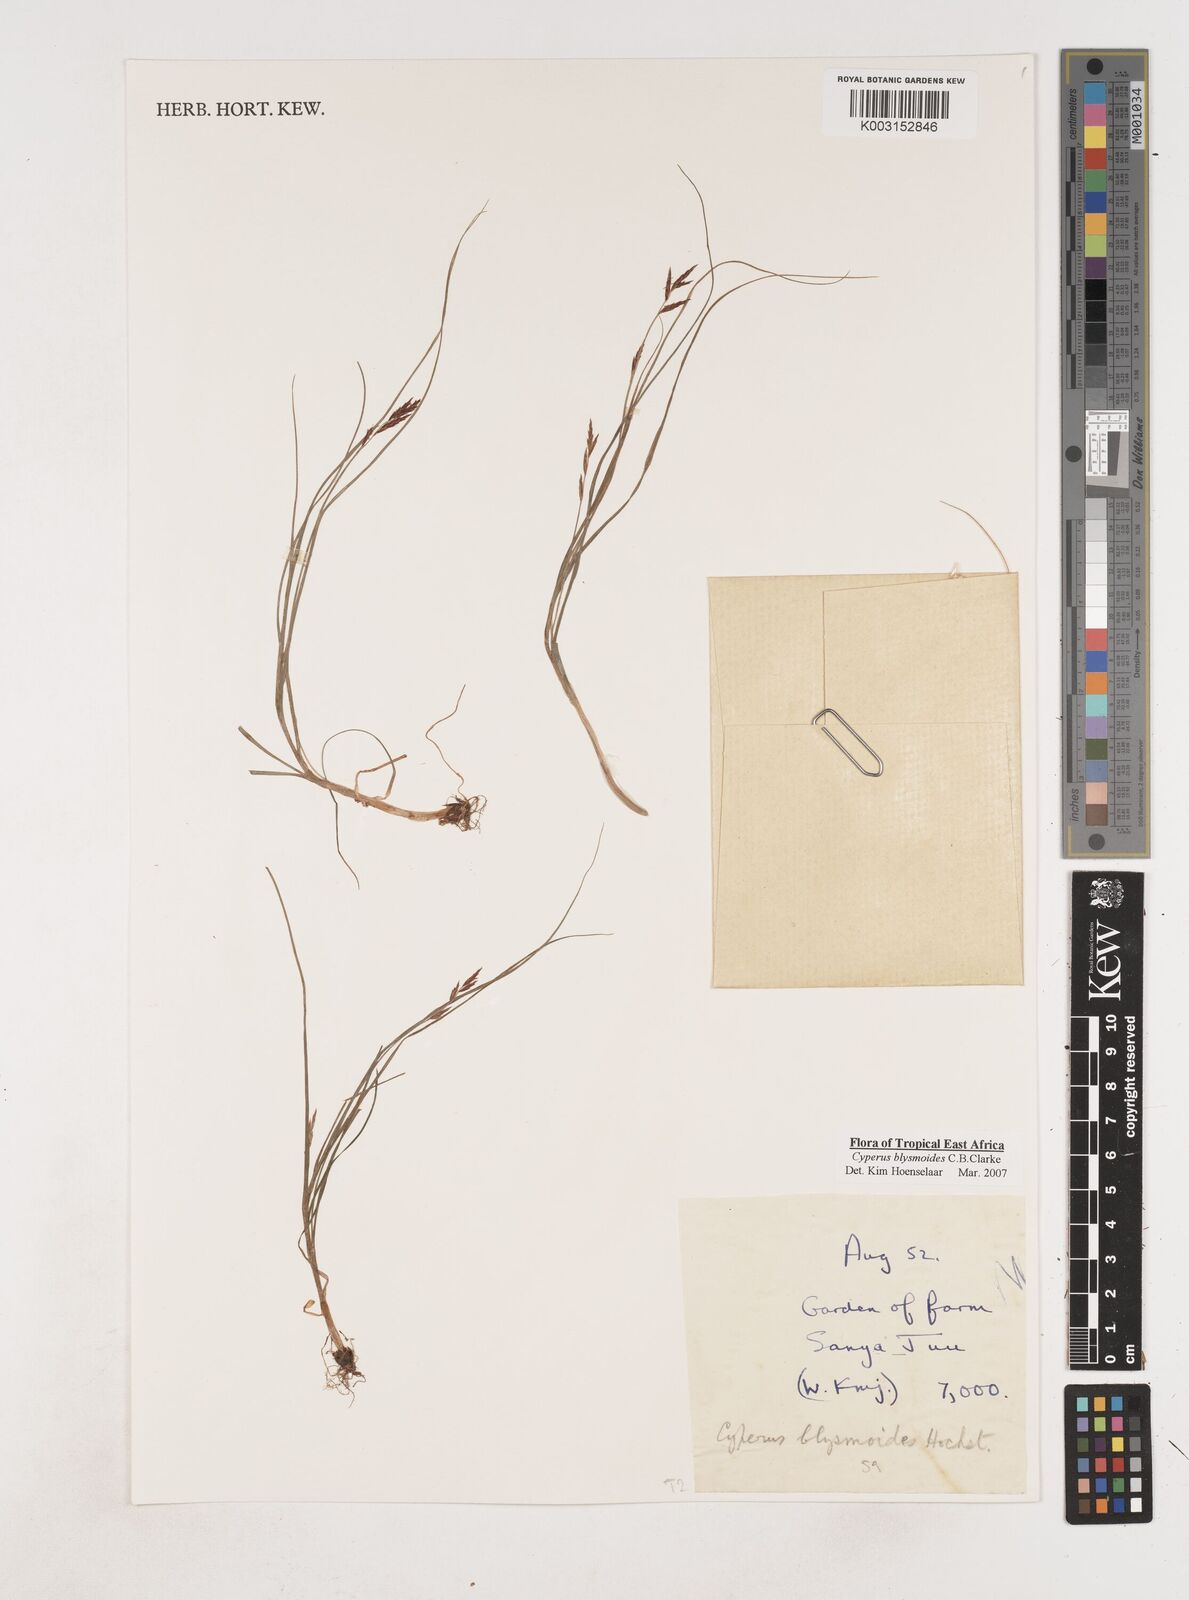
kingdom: Plantae
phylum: Tracheophyta
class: Liliopsida
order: Poales
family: Cyperaceae
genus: Cyperus
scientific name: Cyperus blysmoides
